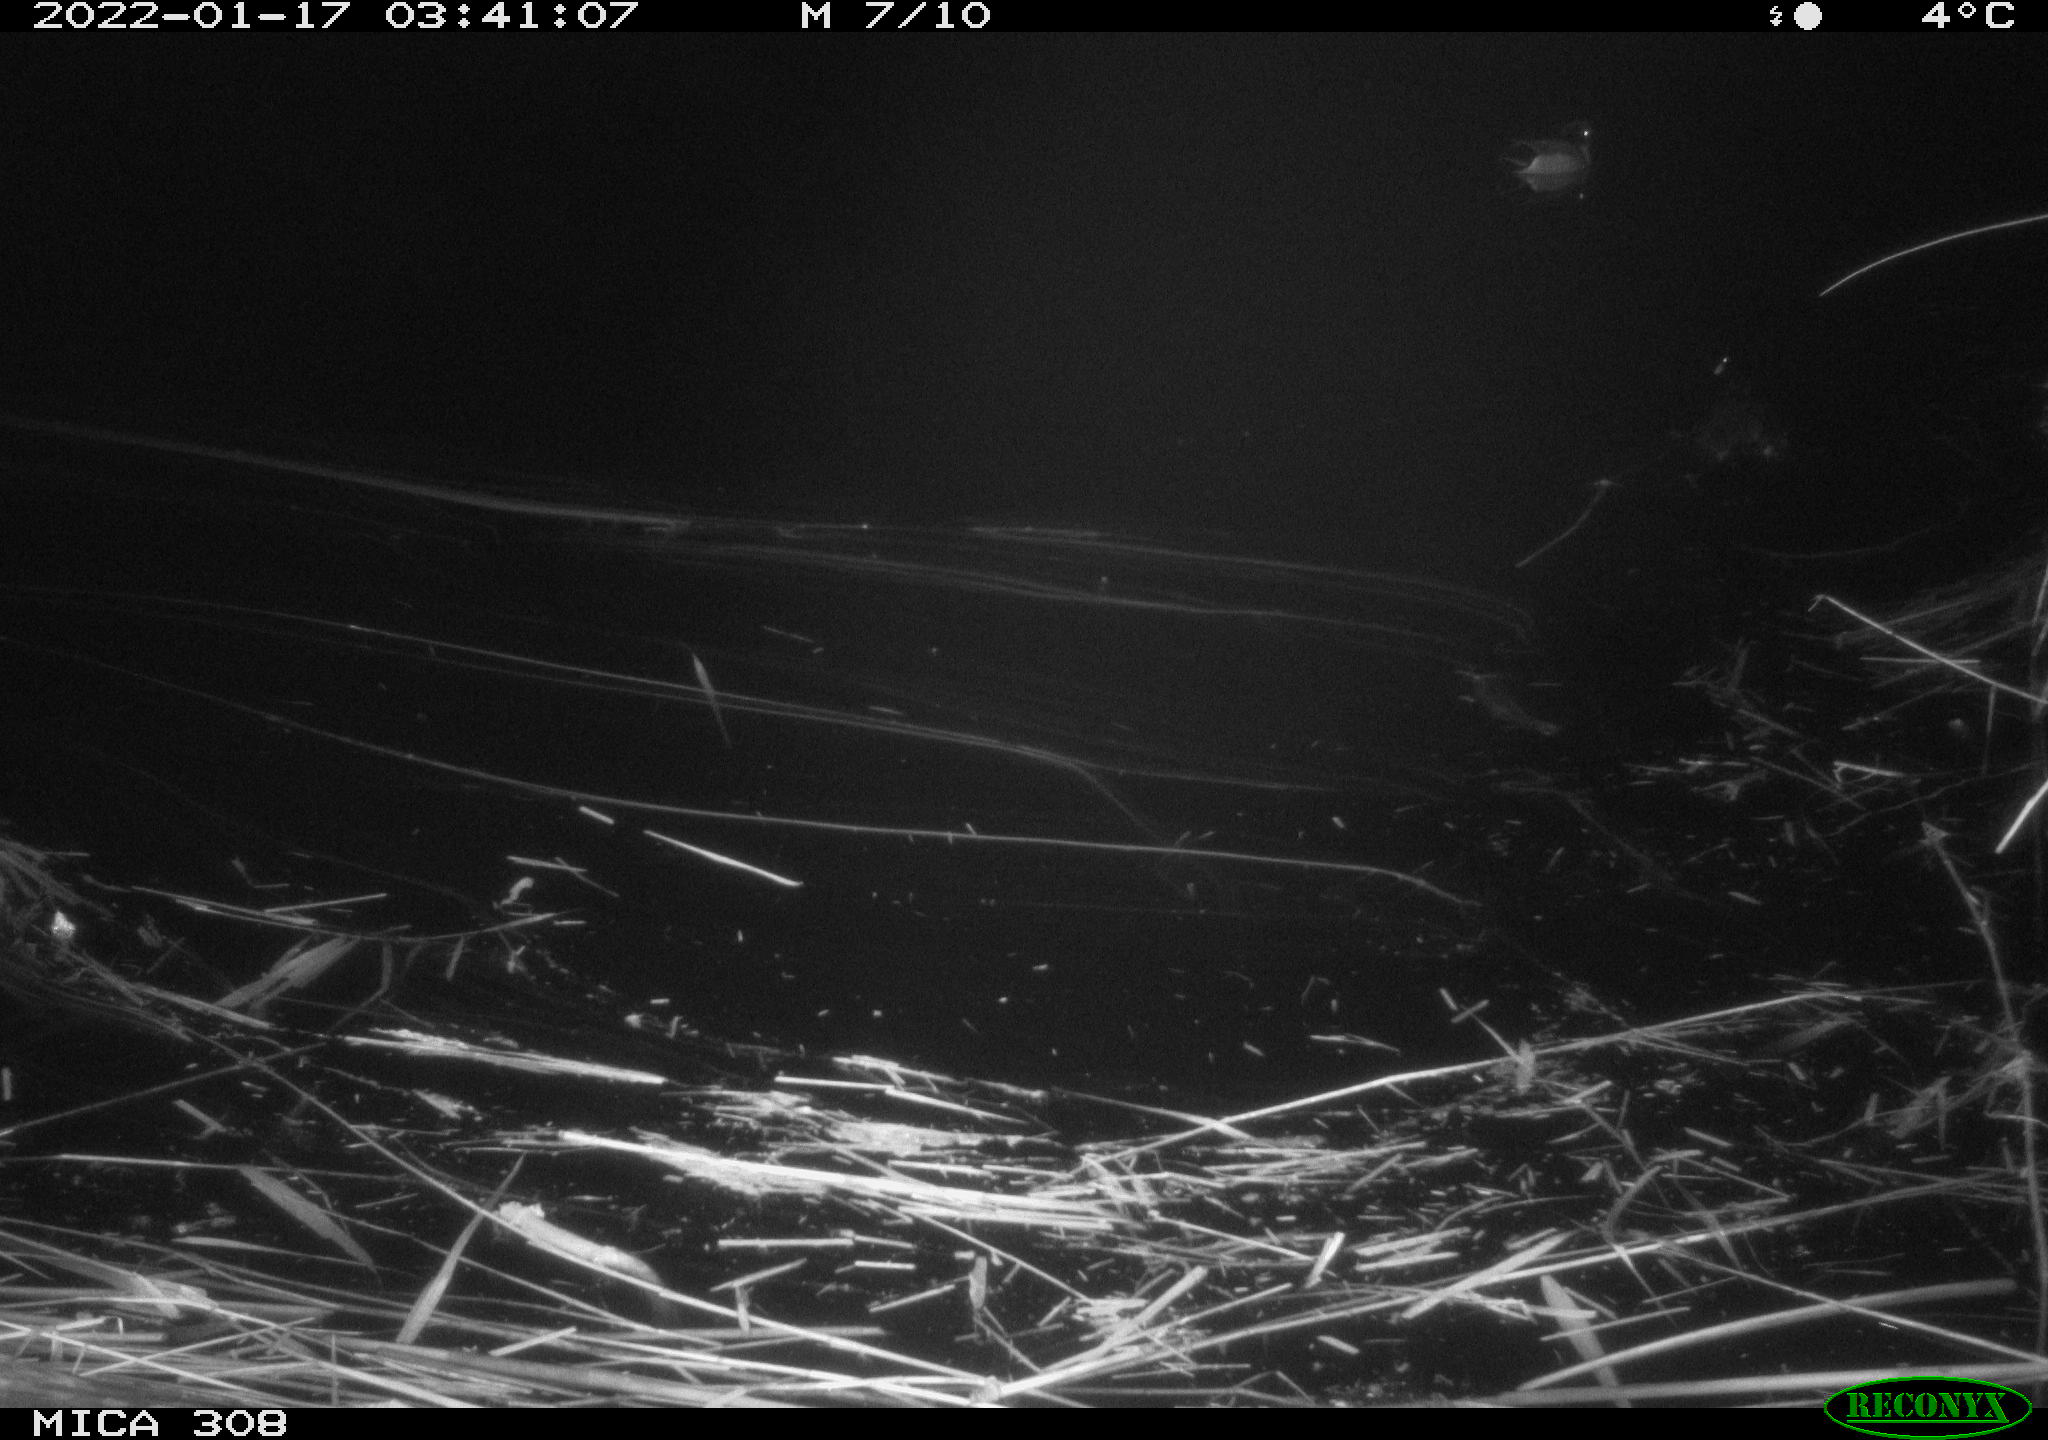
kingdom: Animalia
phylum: Chordata
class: Aves
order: Anseriformes
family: Anatidae
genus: Anas
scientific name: Anas platyrhynchos
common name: Mallard
